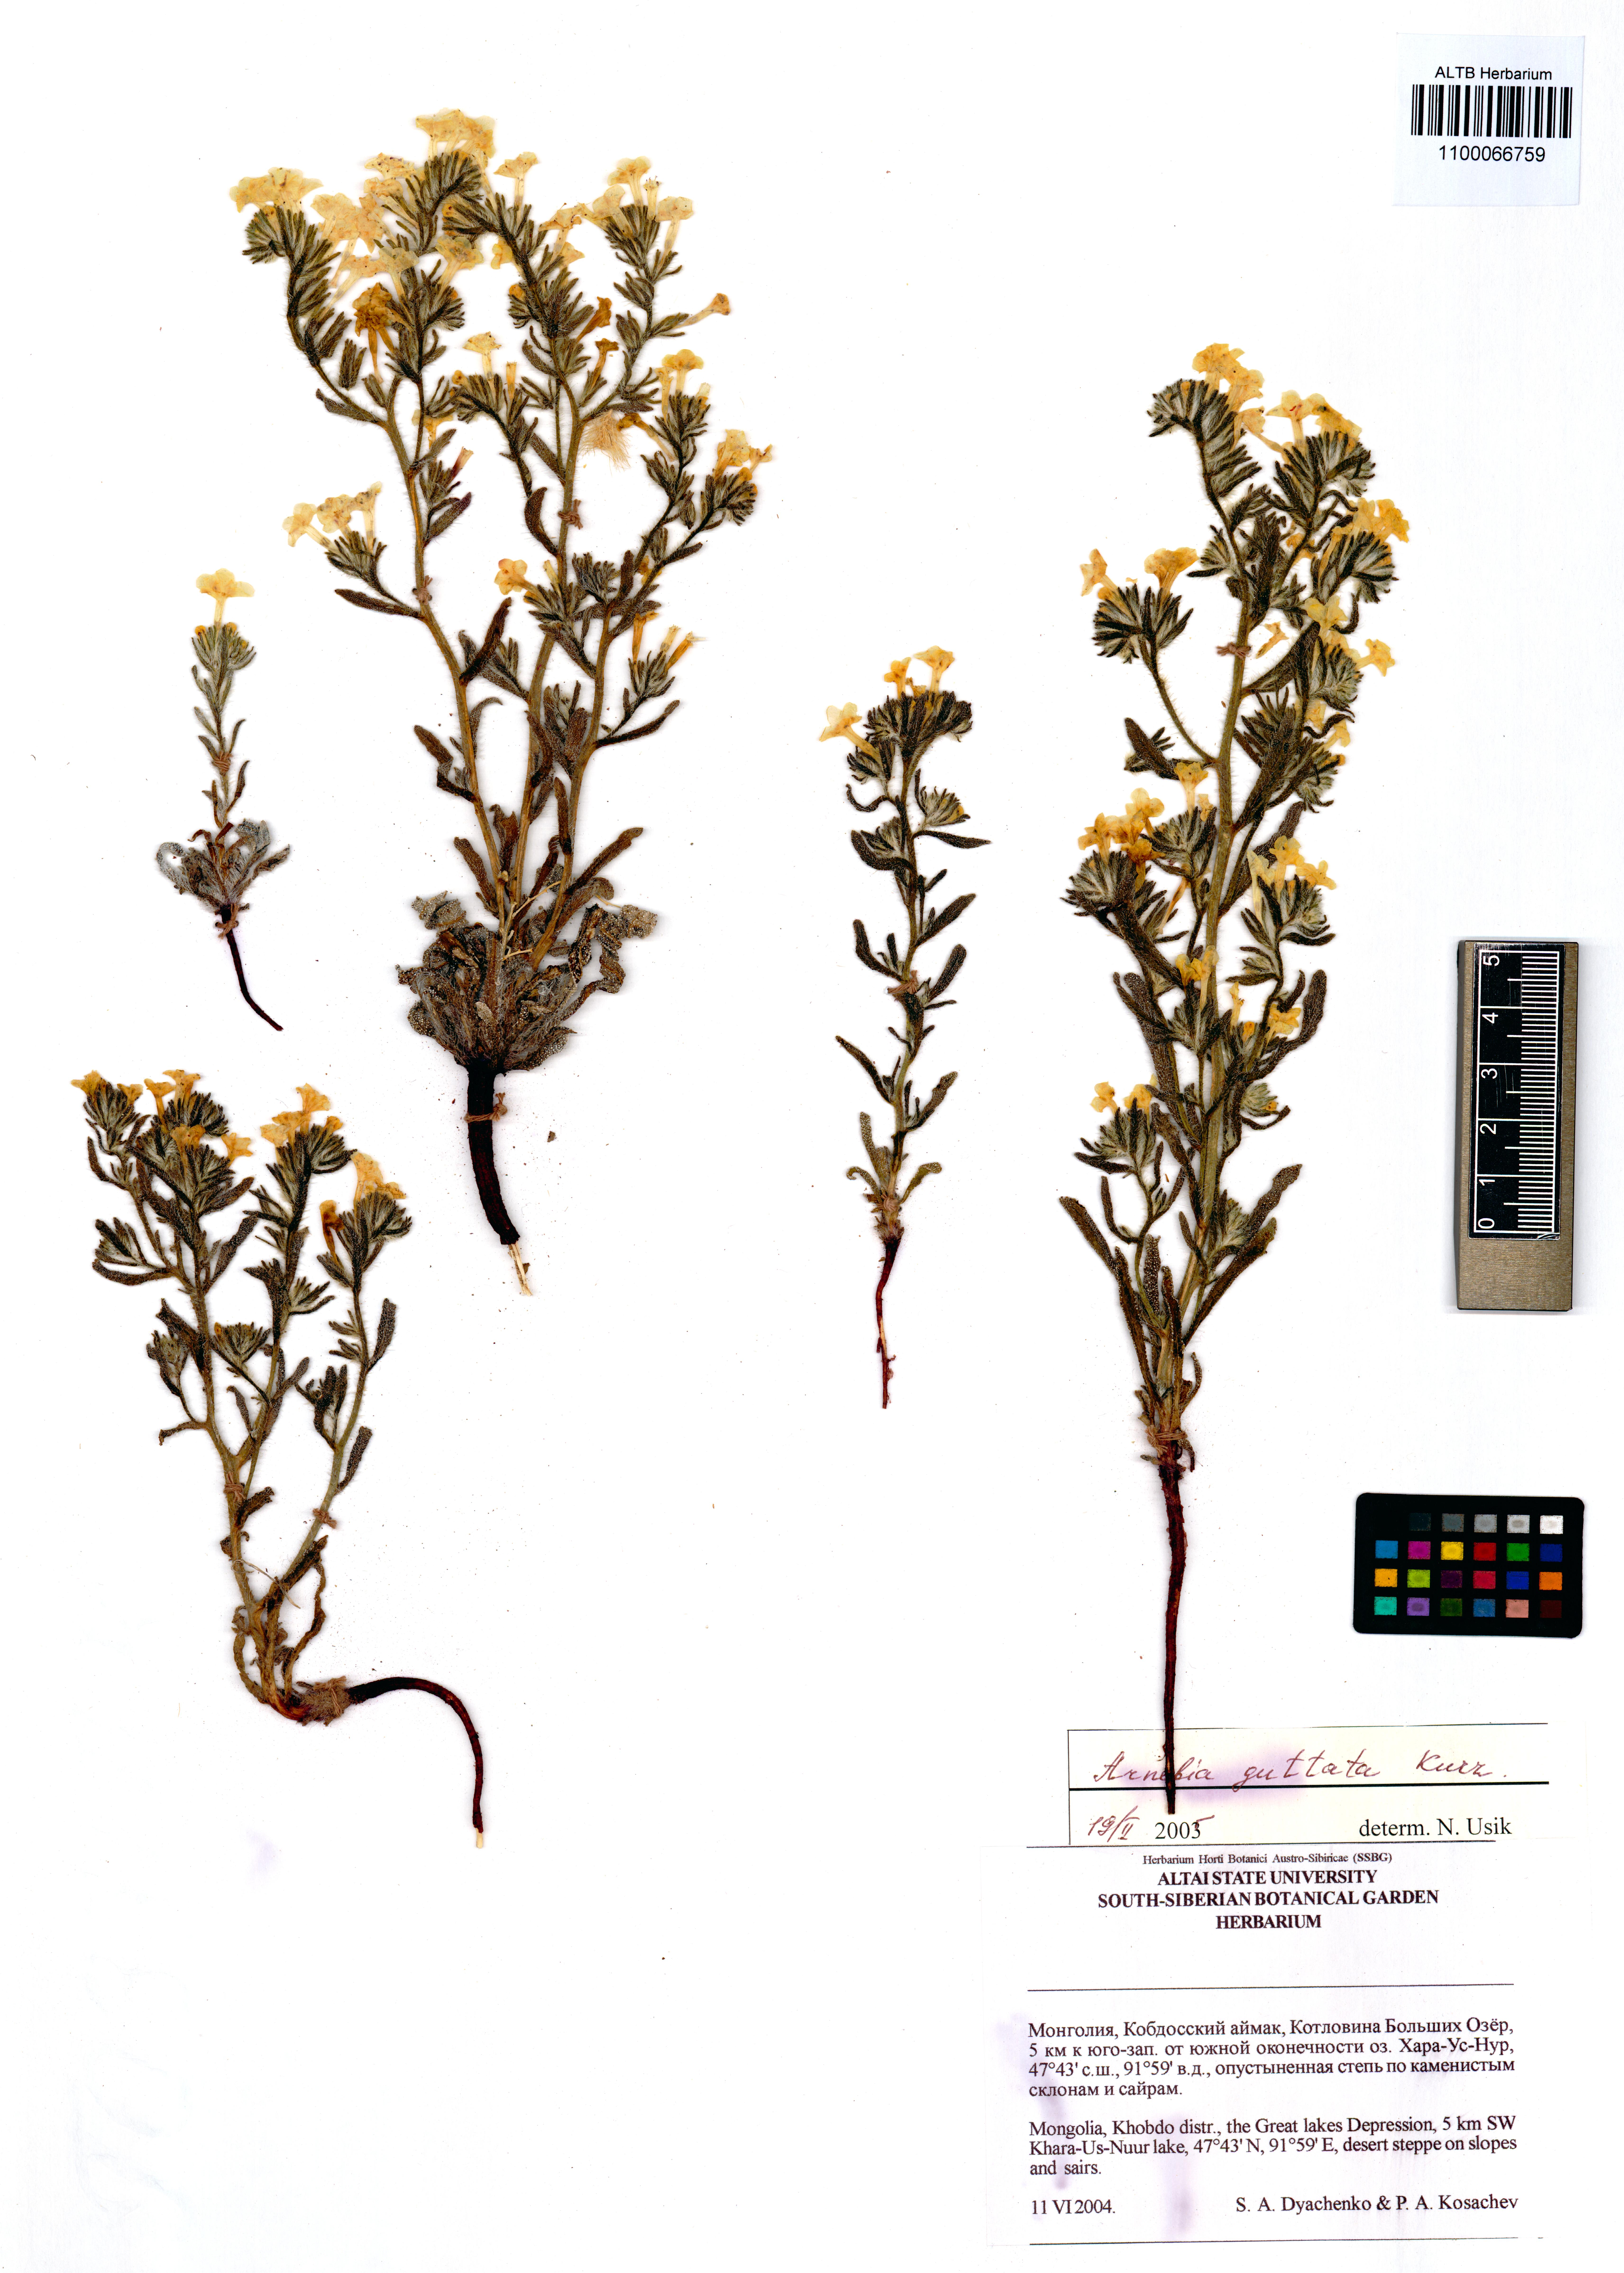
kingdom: Plantae
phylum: Tracheophyta
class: Magnoliopsida
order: Boraginales
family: Boraginaceae
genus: Arnebia
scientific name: Arnebia guttata
